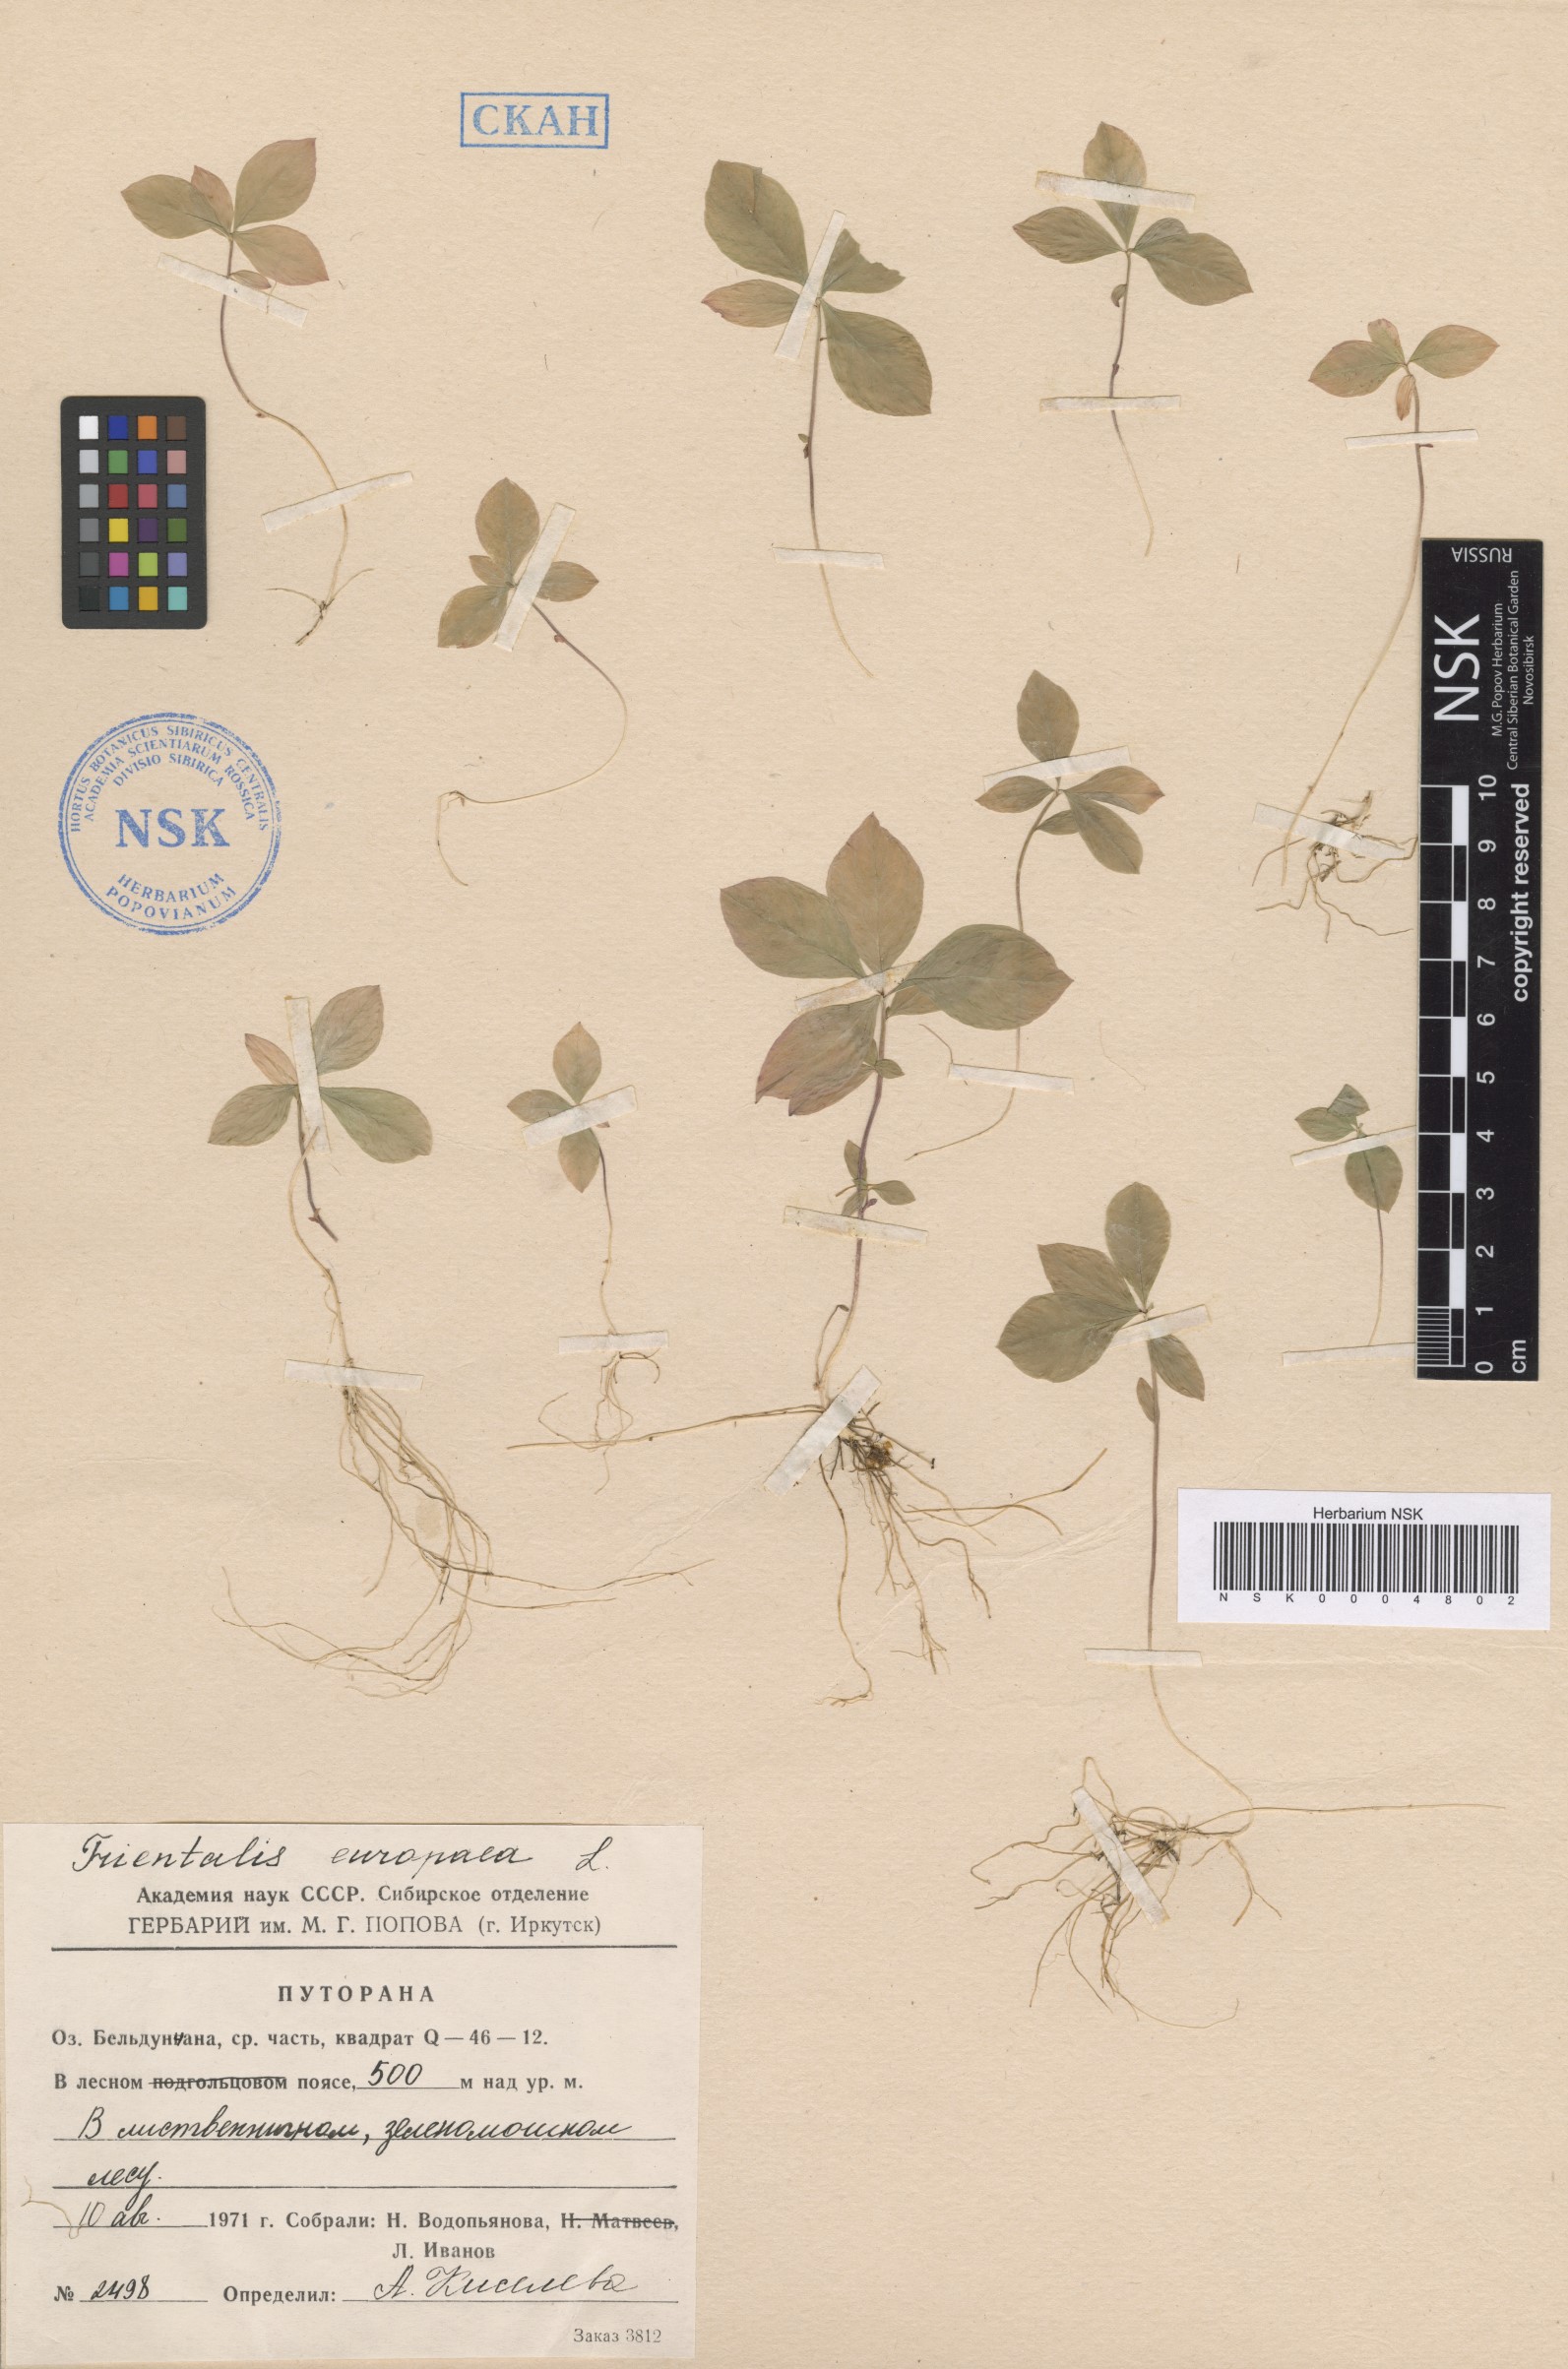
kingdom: Plantae
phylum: Tracheophyta
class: Magnoliopsida
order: Ericales
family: Primulaceae
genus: Lysimachia
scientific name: Lysimachia europaea
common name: Arctic starflower
